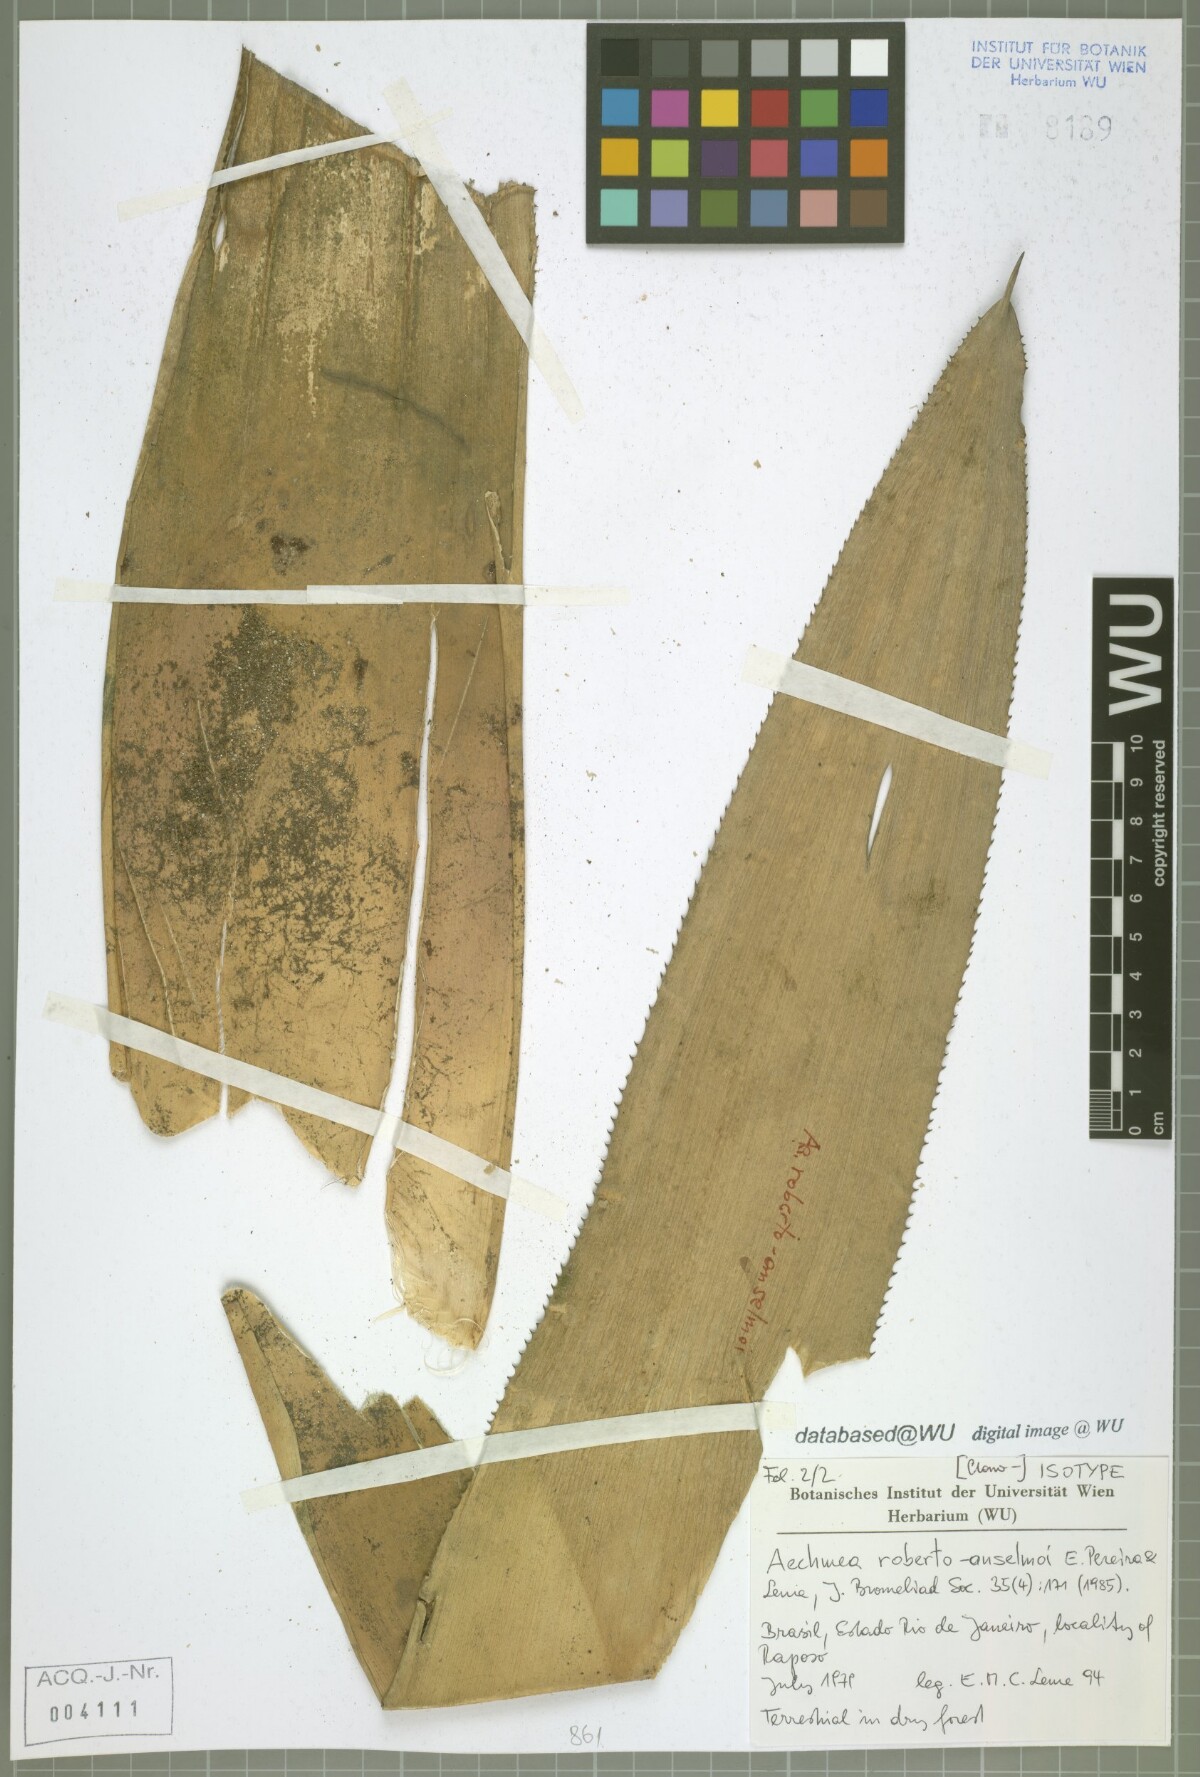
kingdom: Plantae
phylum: Tracheophyta
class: Liliopsida
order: Poales
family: Bromeliaceae
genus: Aechmea
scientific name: Aechmea roberto-anselmoi
